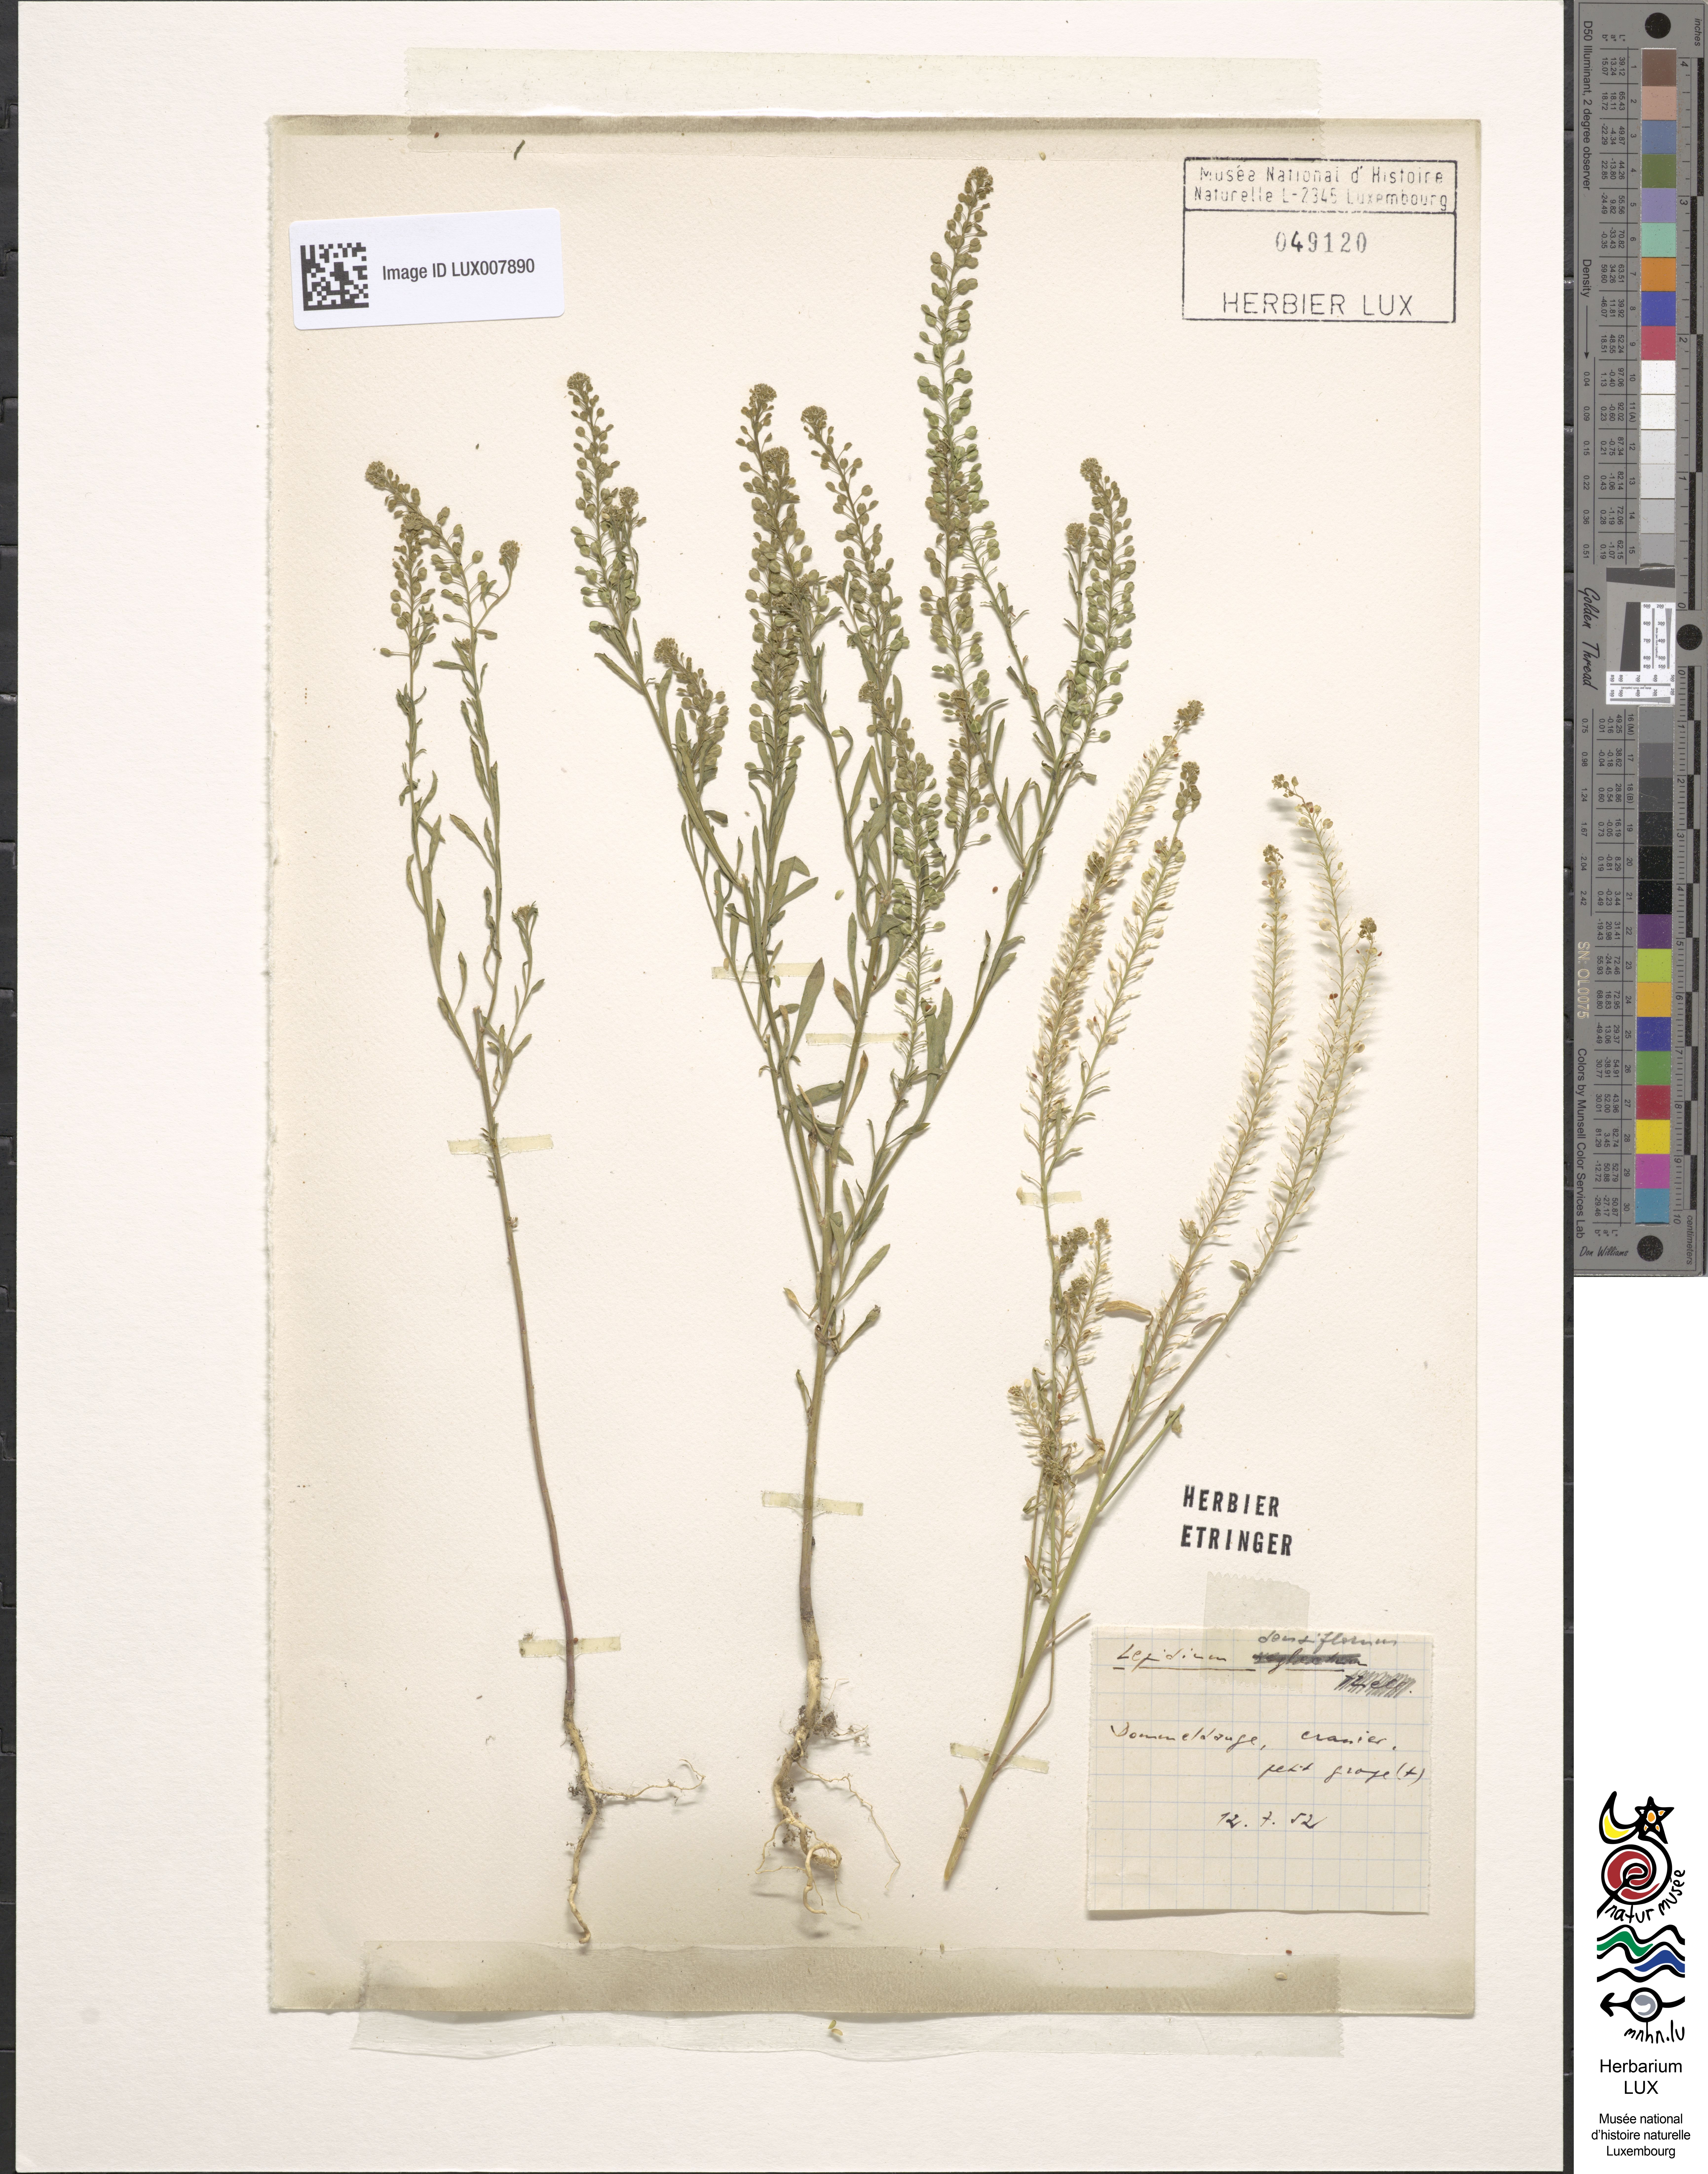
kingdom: Plantae
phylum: Tracheophyta
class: Magnoliopsida
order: Brassicales
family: Brassicaceae
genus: Lepidium
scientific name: Lepidium densiflorum
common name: Miner's pepperwort
